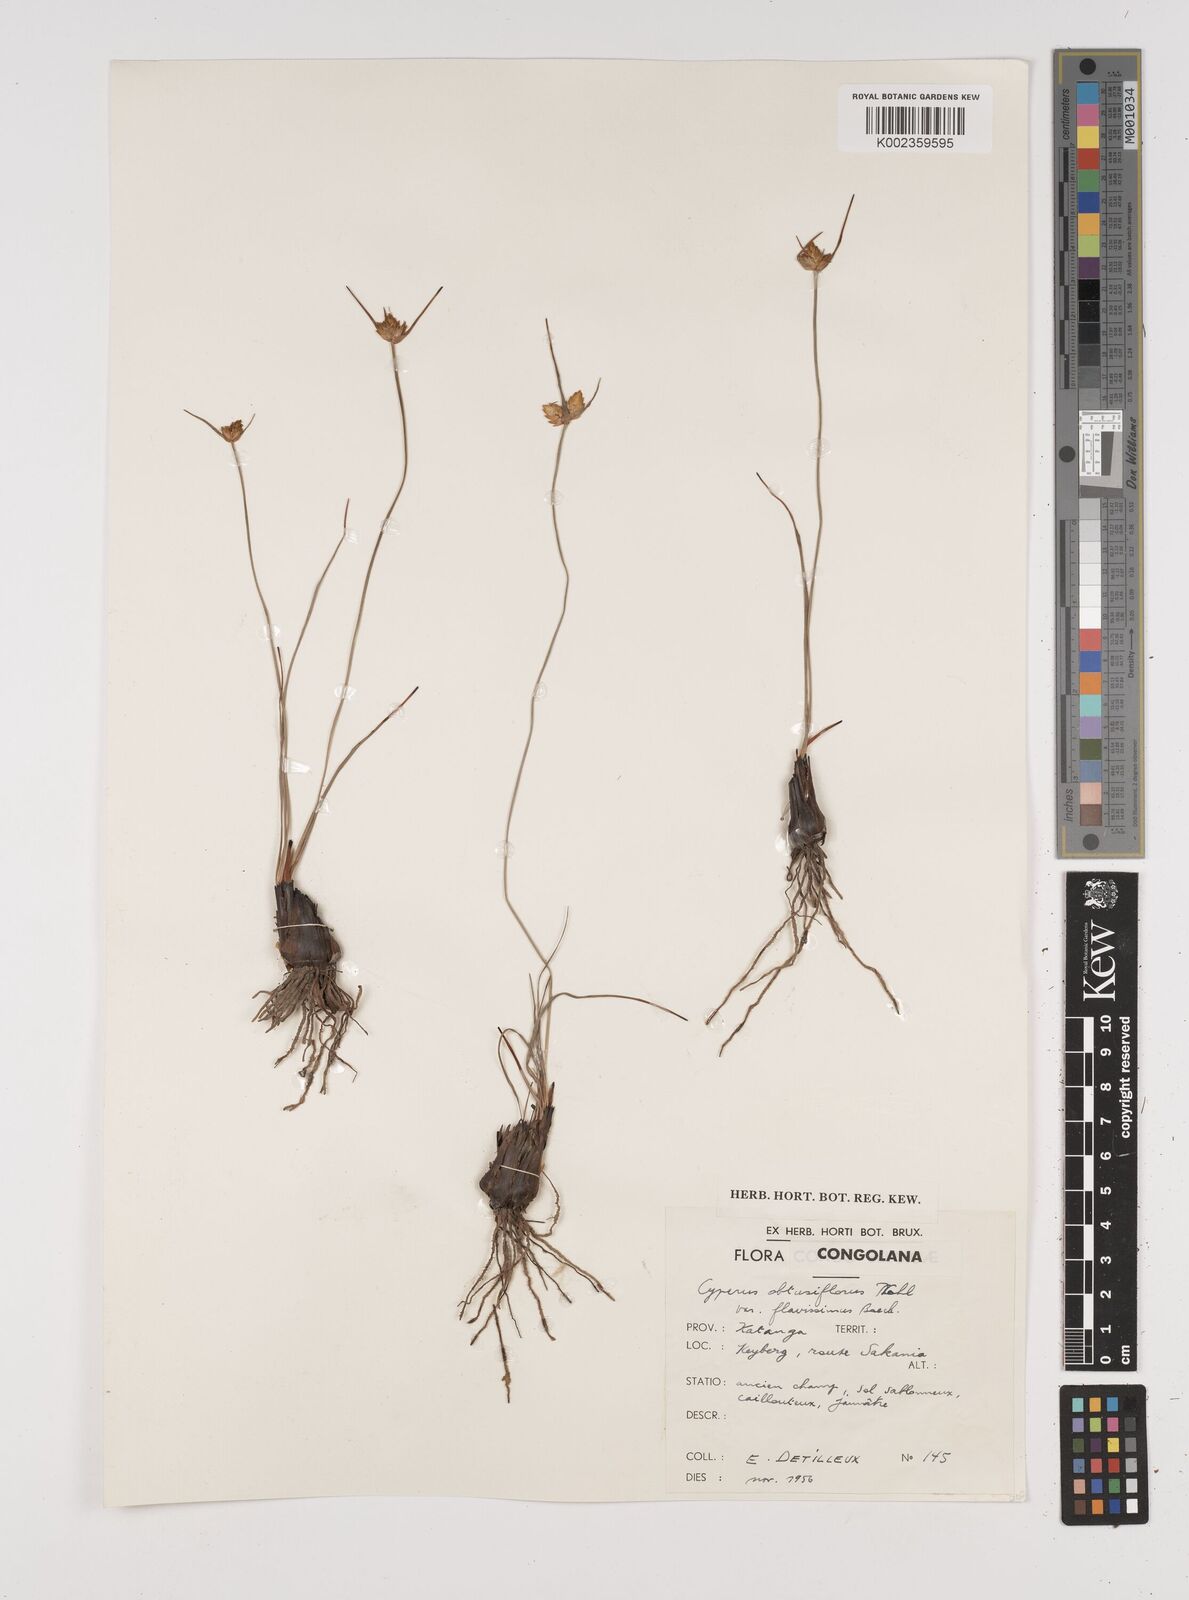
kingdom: Plantae
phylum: Tracheophyta
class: Liliopsida
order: Poales
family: Cyperaceae
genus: Cyperus
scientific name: Cyperus kibweanus
